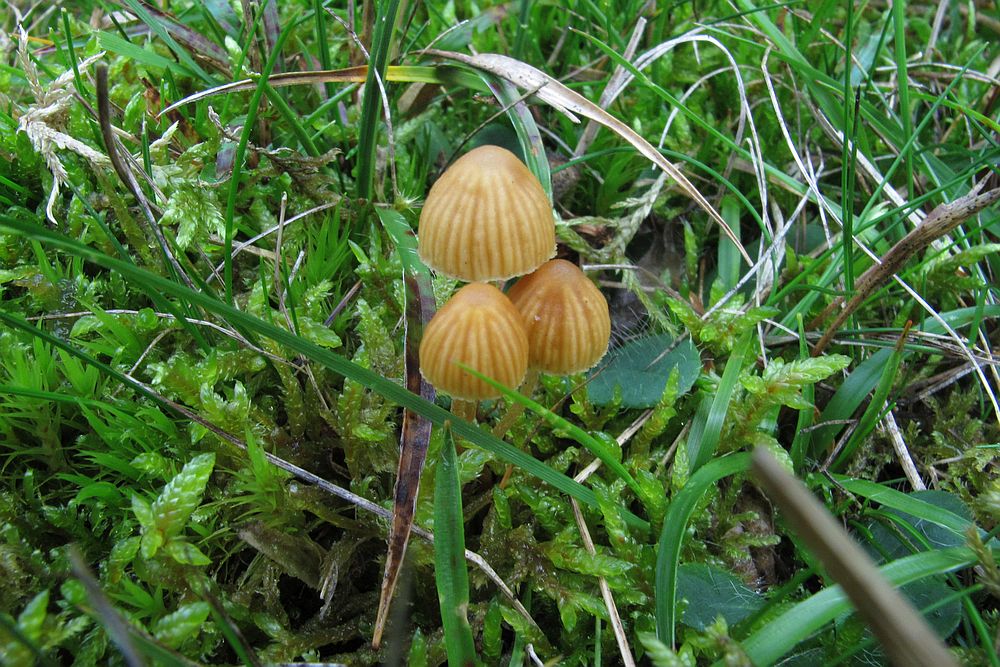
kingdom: Fungi
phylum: Basidiomycota
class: Agaricomycetes
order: Agaricales
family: Hymenogastraceae
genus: Galerina
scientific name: Galerina cerina
